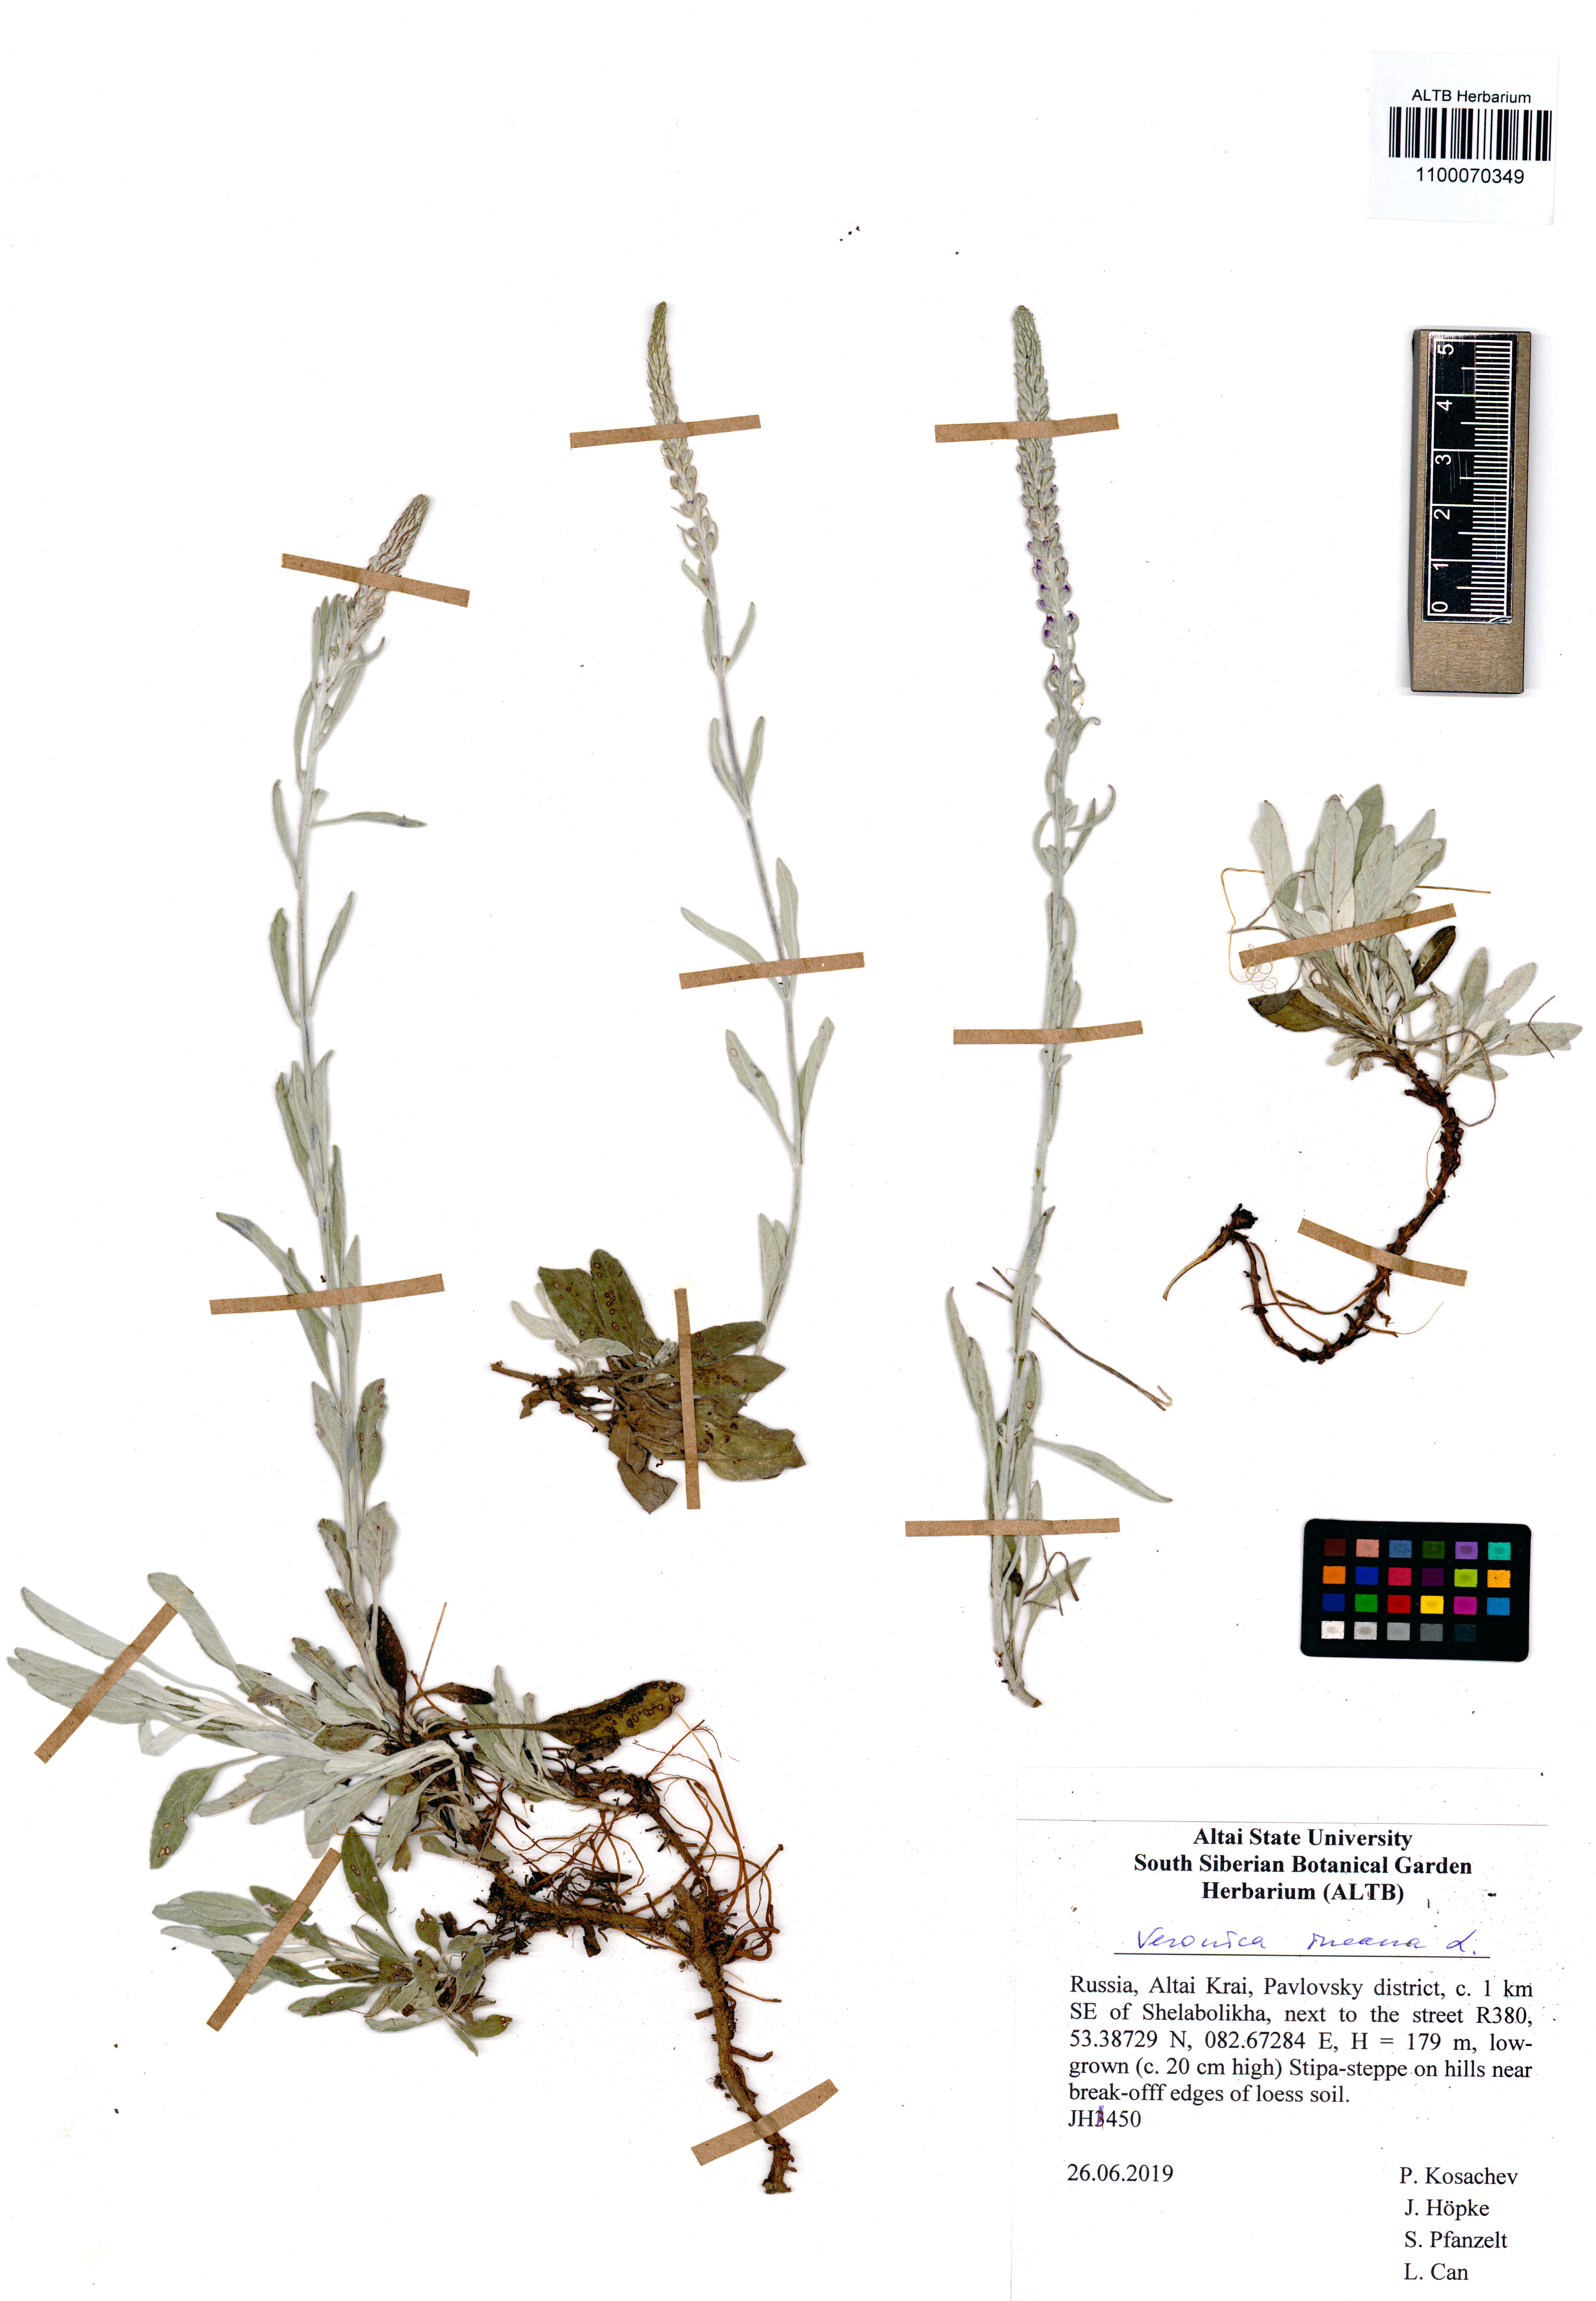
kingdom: Plantae
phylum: Tracheophyta
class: Magnoliopsida
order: Lamiales
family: Plantaginaceae
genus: Veronica
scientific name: Veronica incana
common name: Silver speedwell
